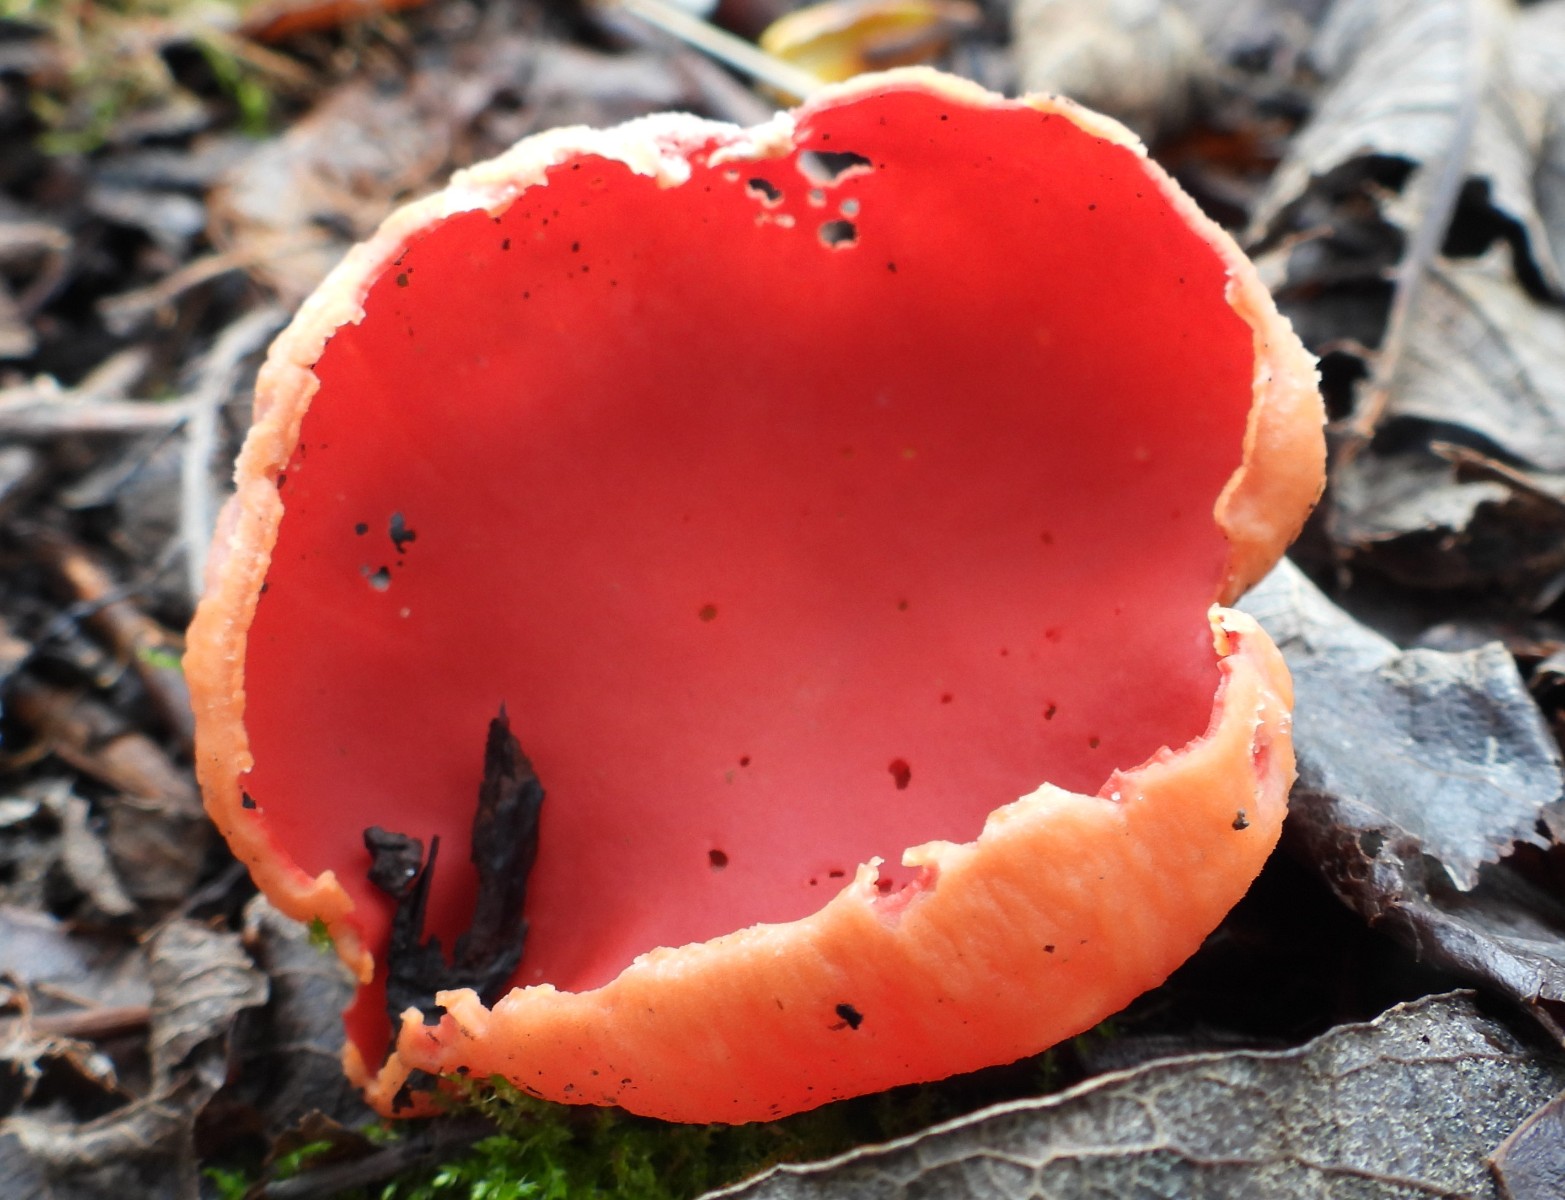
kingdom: Fungi
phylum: Ascomycota
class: Pezizomycetes
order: Pezizales
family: Sarcoscyphaceae
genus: Sarcoscypha
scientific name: Sarcoscypha austriaca
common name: krølhåret pragtbæger
